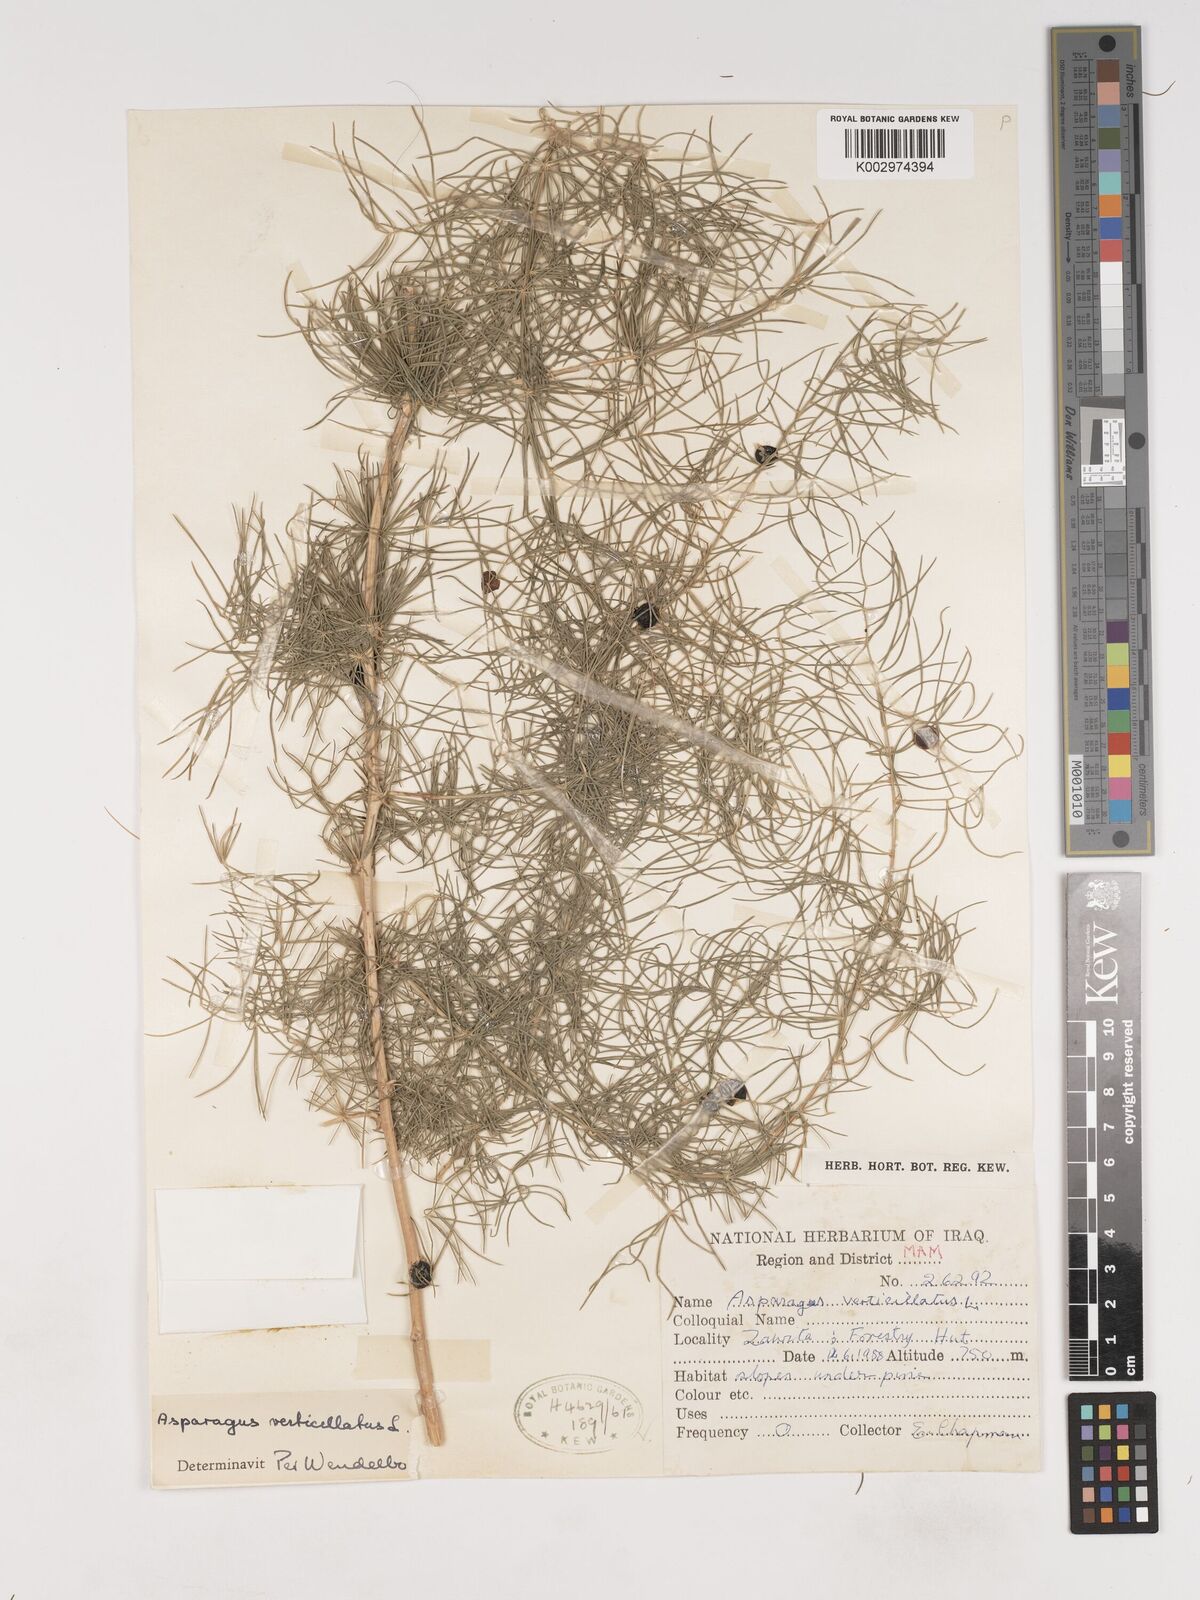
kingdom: Plantae
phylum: Tracheophyta
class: Liliopsida
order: Asparagales
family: Asparagaceae
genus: Asparagus
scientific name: Asparagus verticillatus
